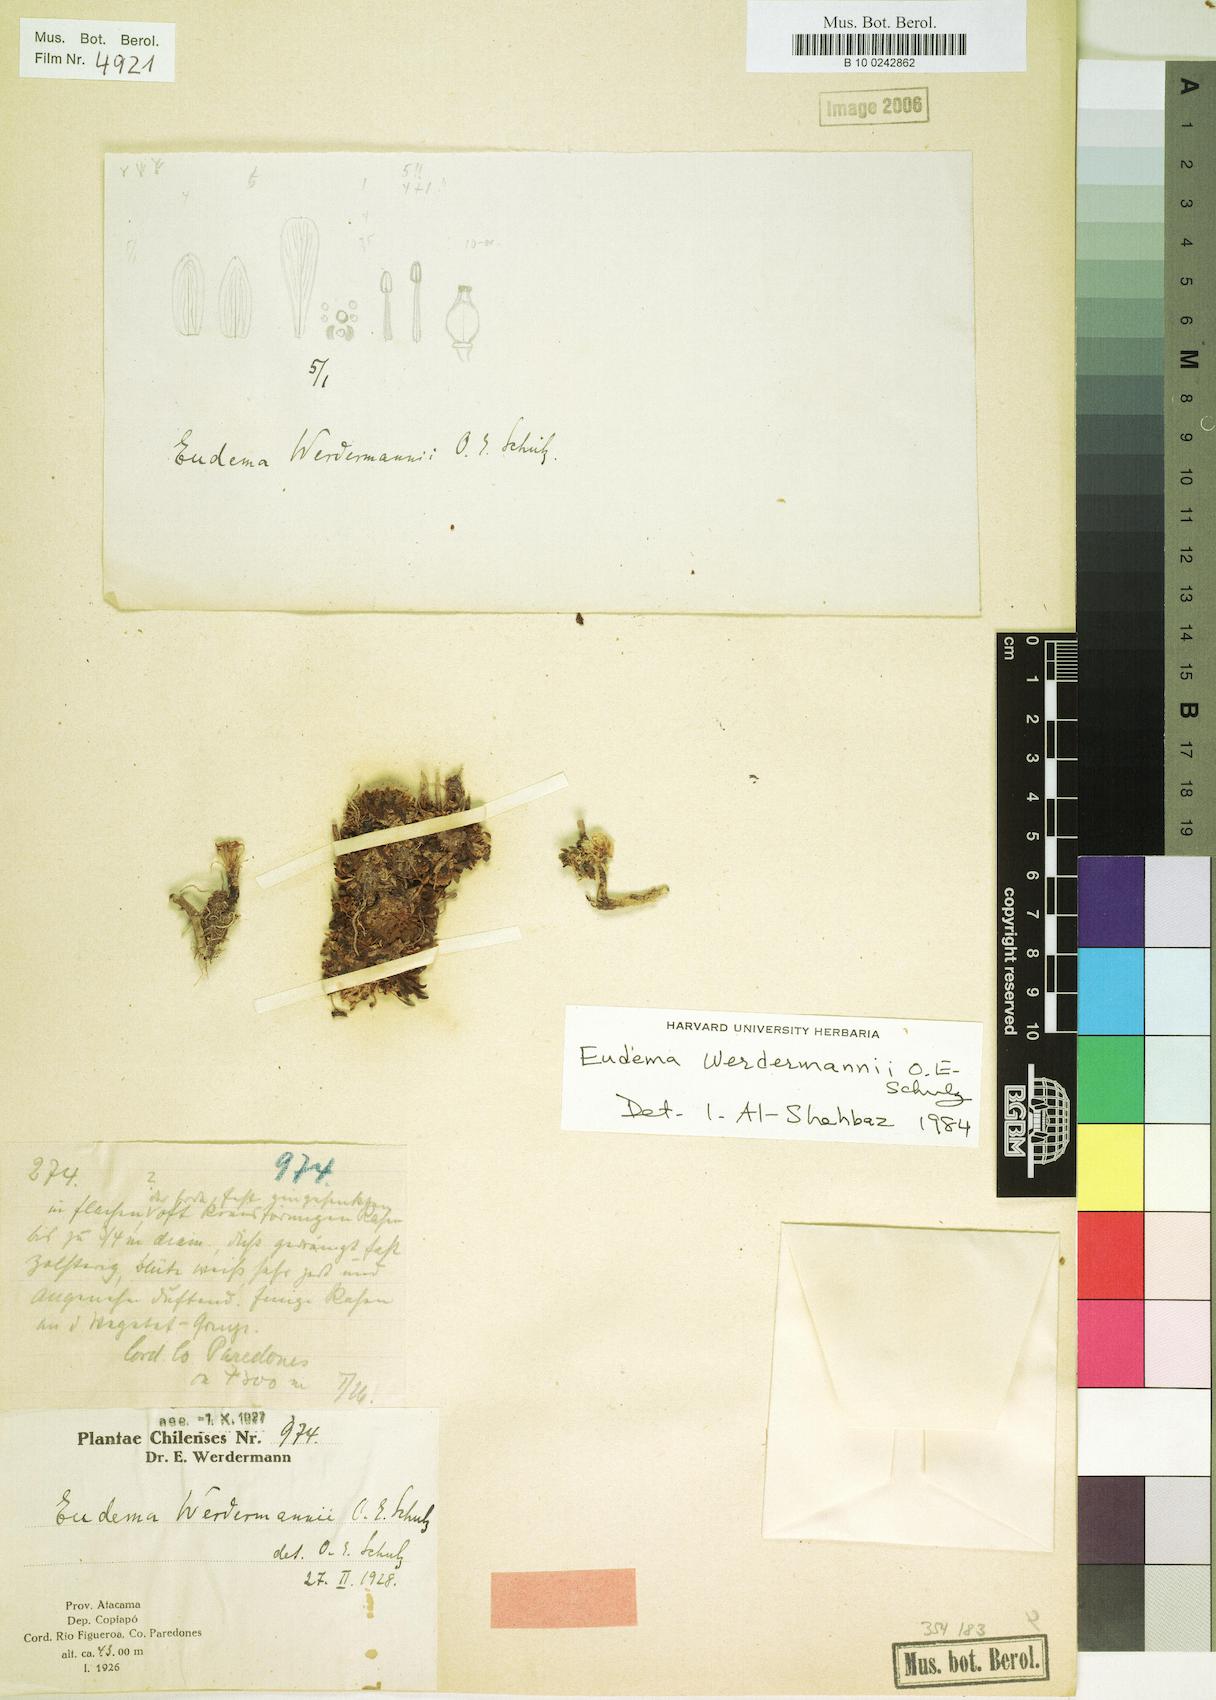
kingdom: Plantae
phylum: Tracheophyta
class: Magnoliopsida
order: Brassicales
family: Brassicaceae
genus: Petroravenia
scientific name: Petroravenia werdermannii
